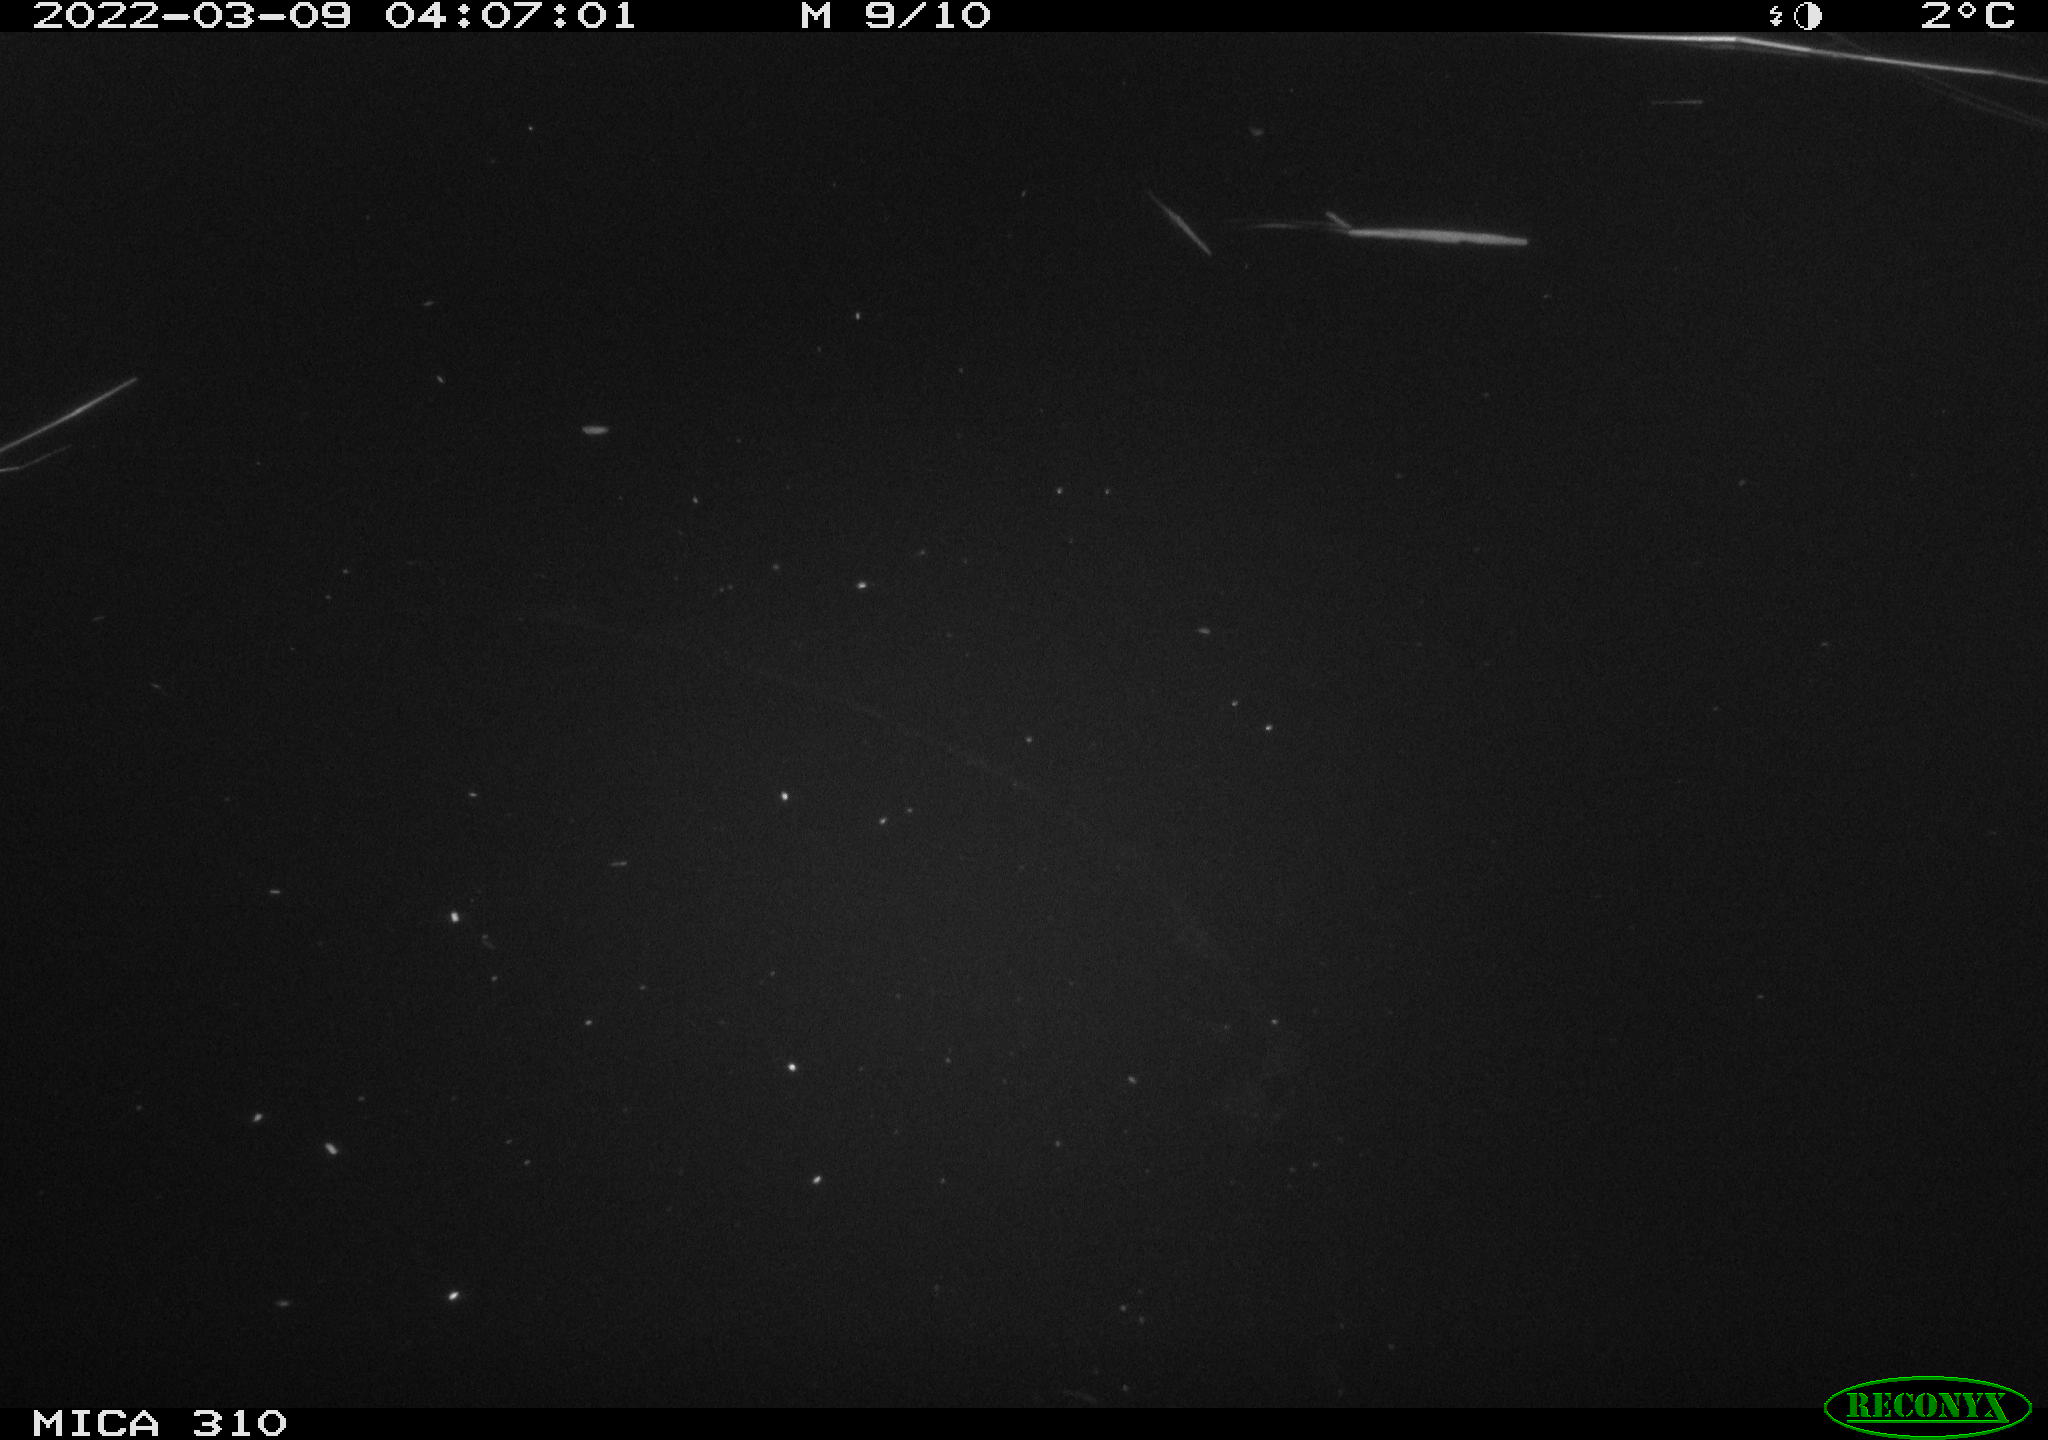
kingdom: Animalia
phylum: Chordata
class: Aves
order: Anseriformes
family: Anatidae
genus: Anas
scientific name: Anas platyrhynchos
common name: Mallard
